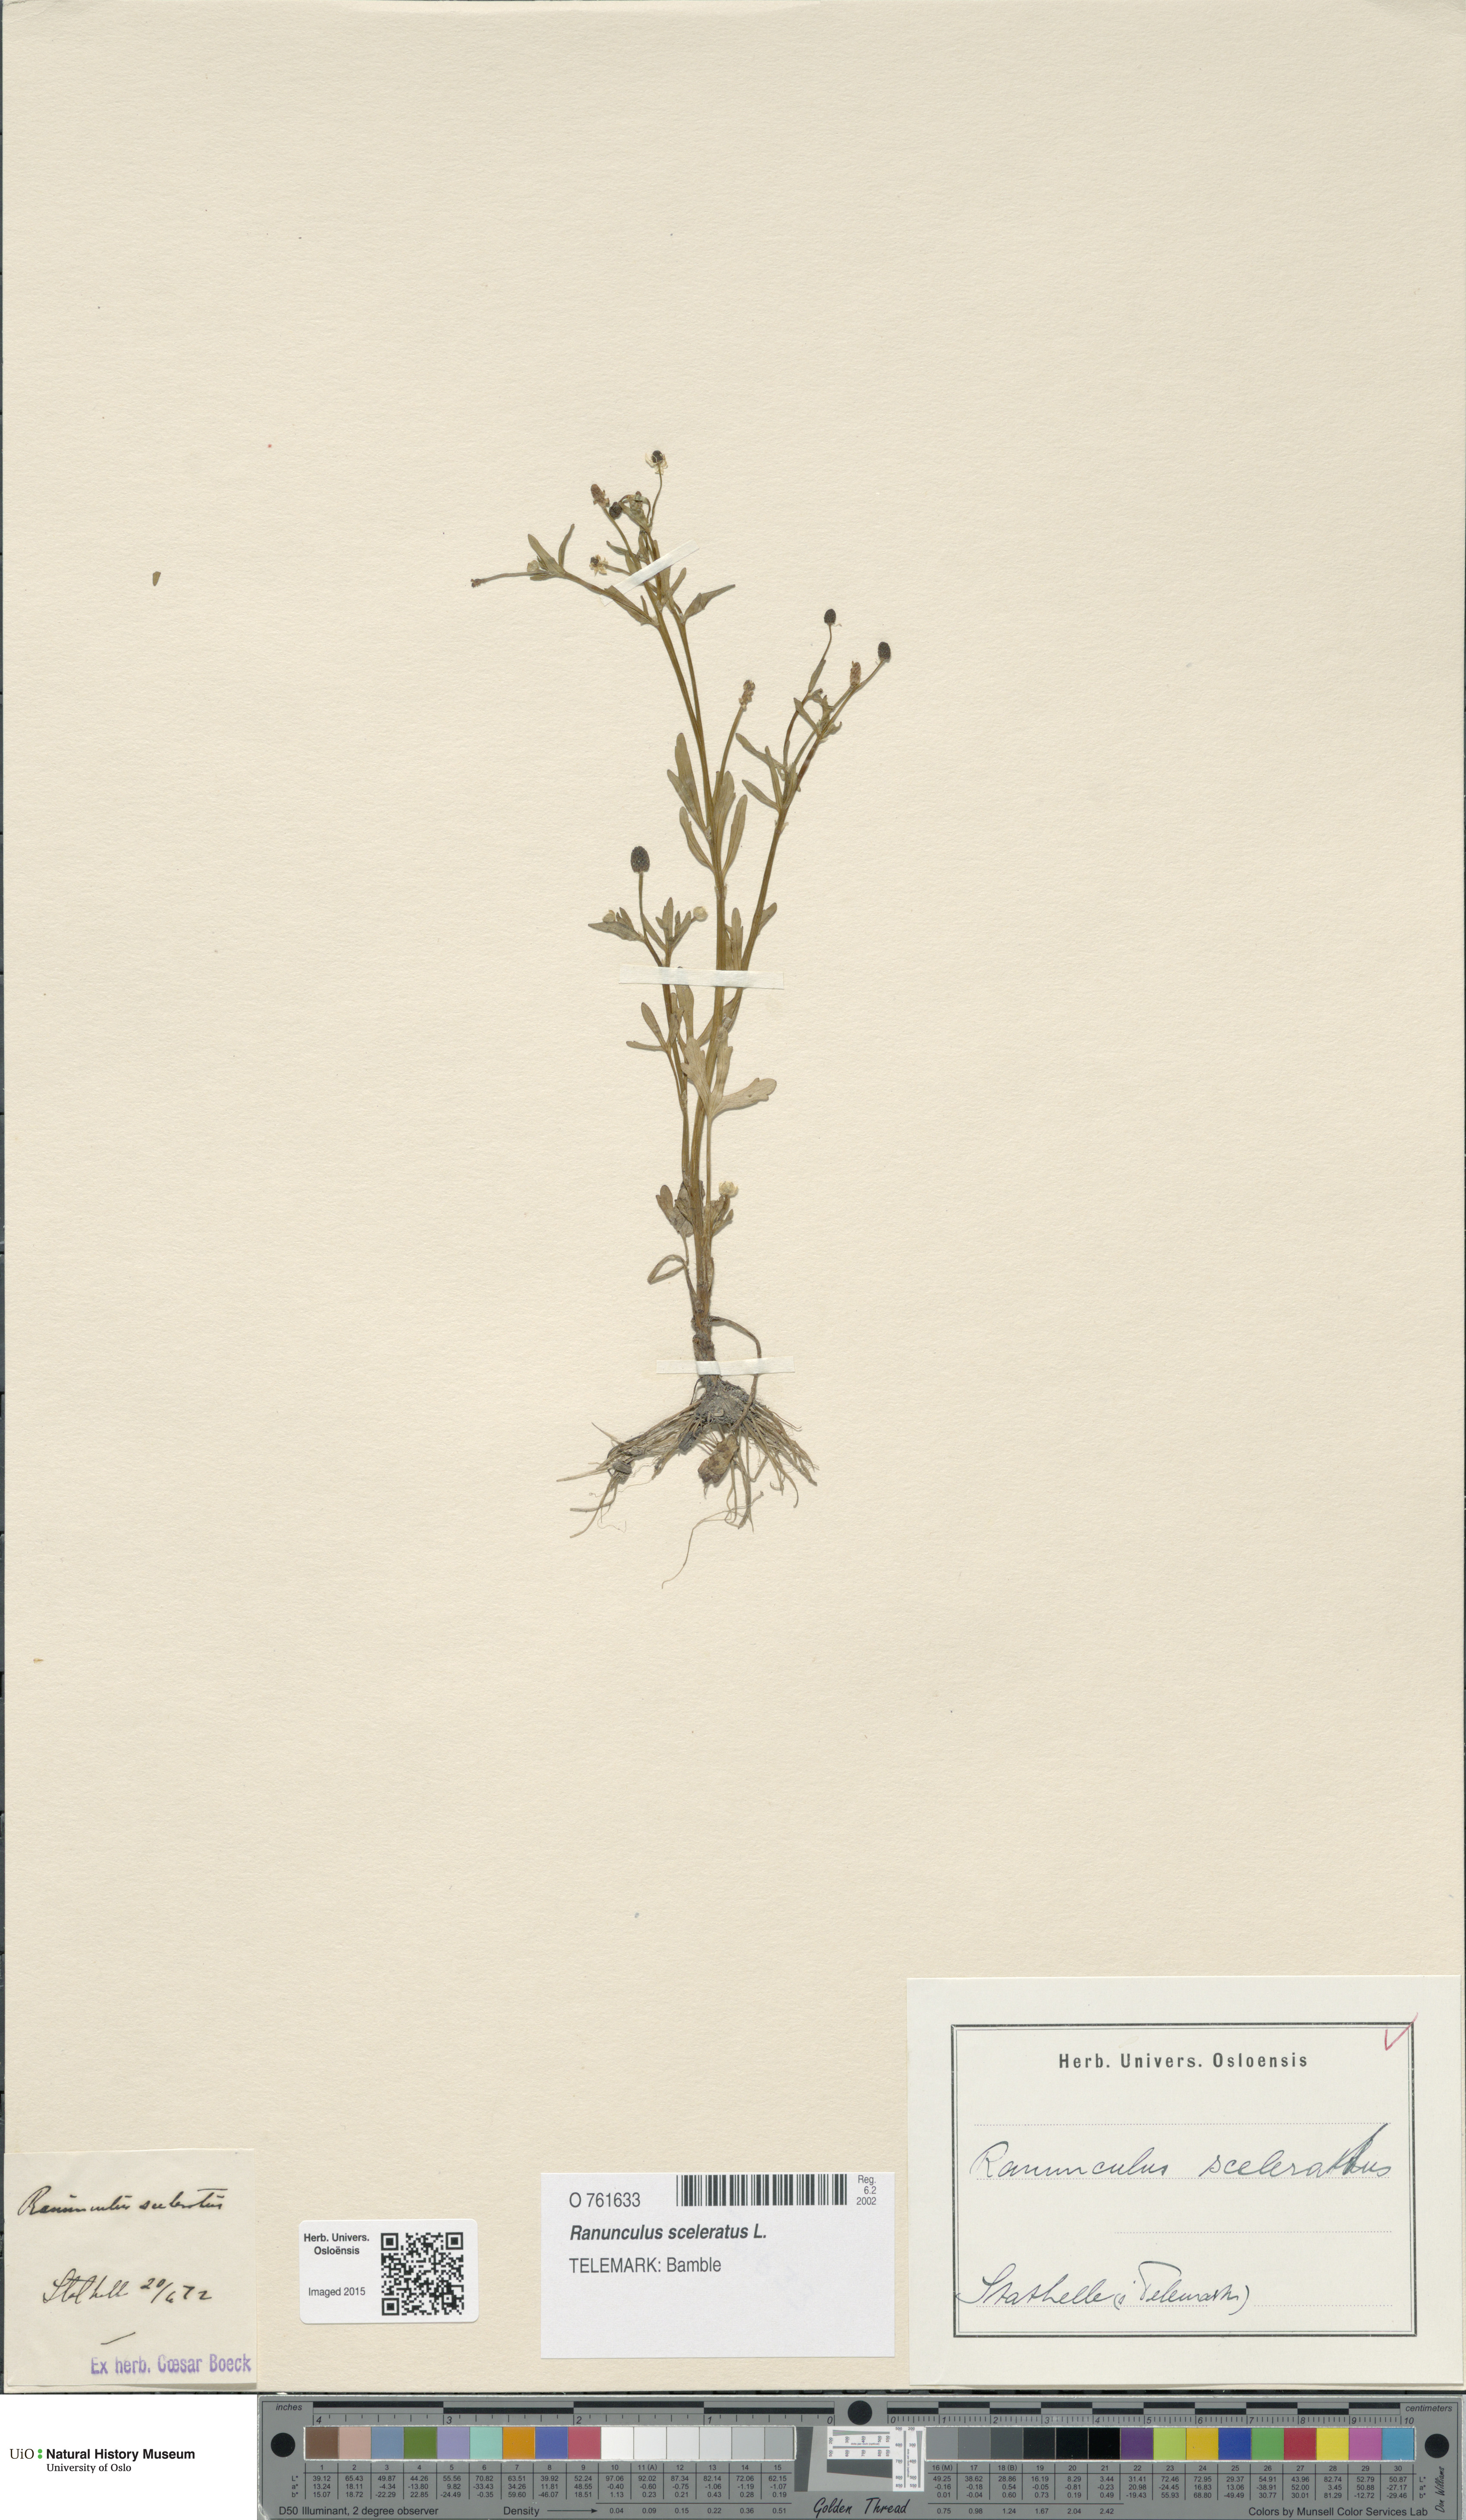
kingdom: Plantae
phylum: Tracheophyta
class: Magnoliopsida
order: Ranunculales
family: Ranunculaceae
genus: Ranunculus
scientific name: Ranunculus sceleratus
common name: Celery-leaved buttercup
